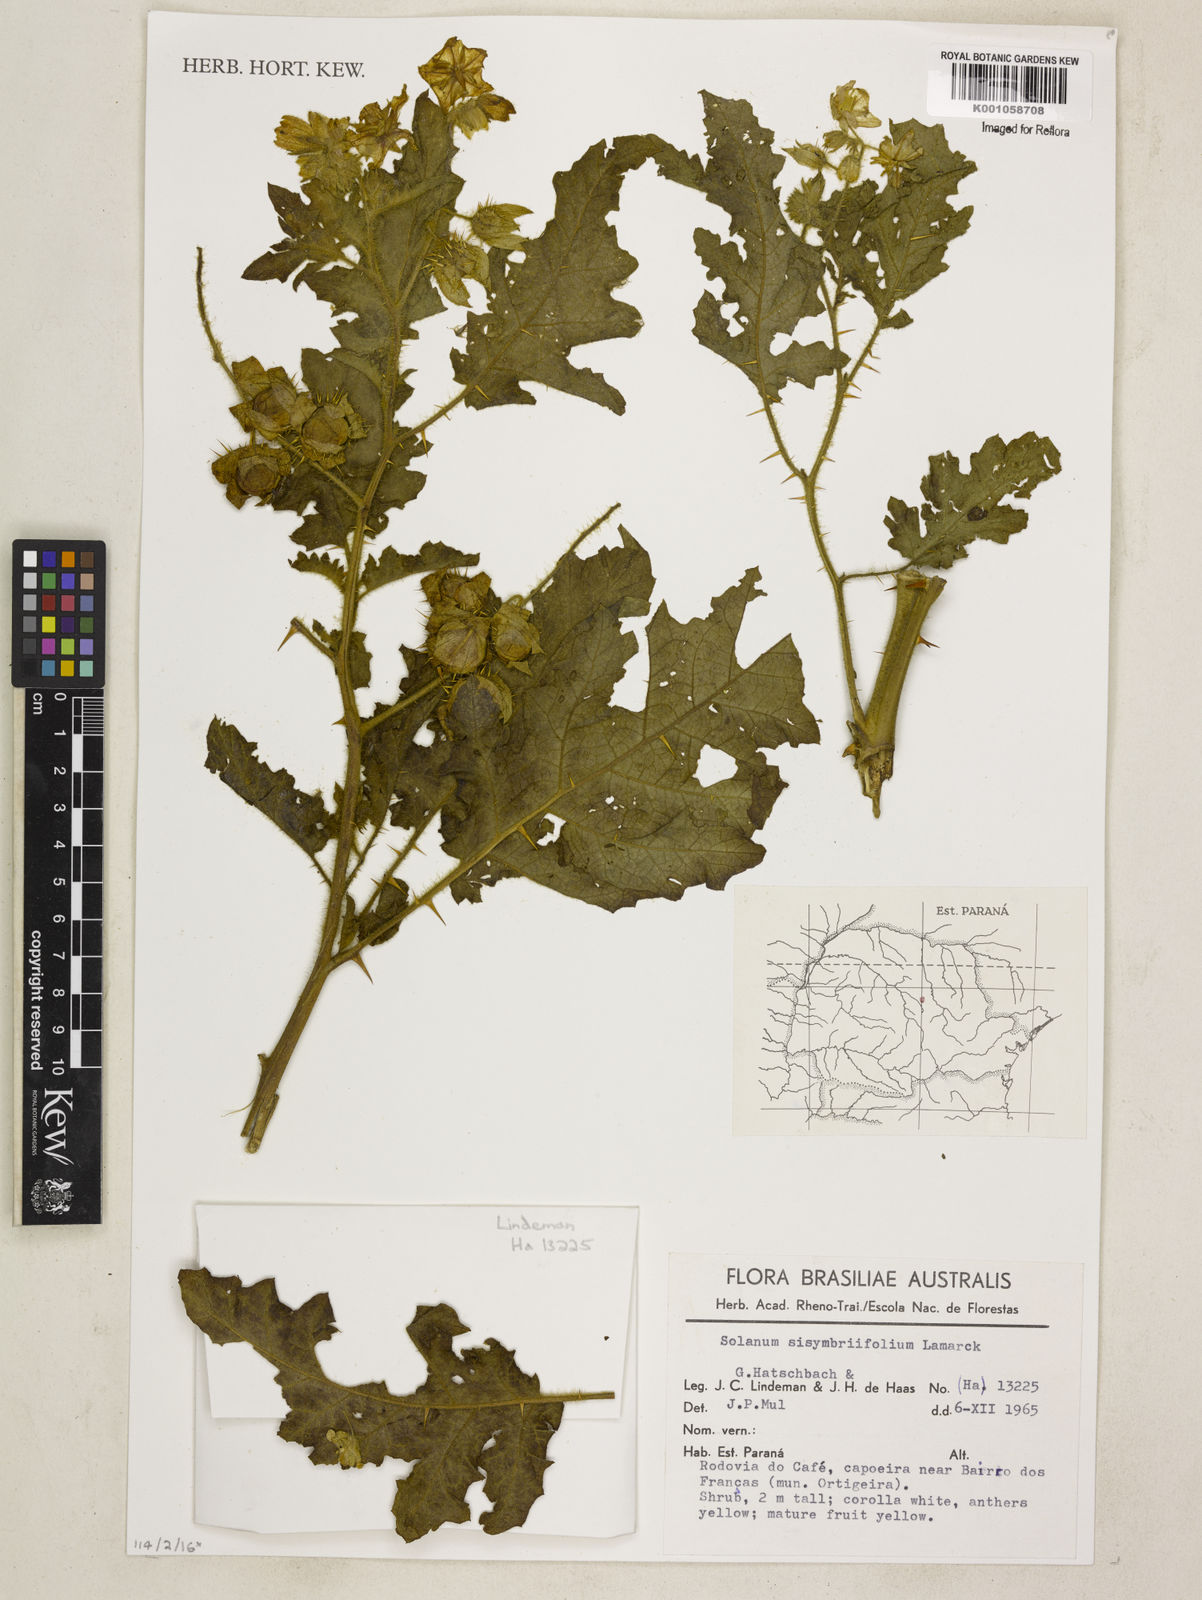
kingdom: Plantae
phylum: Tracheophyta
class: Magnoliopsida
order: Solanales
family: Solanaceae
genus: Solanum
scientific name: Solanum sisymbriifolium
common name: Red buffalo-bur
